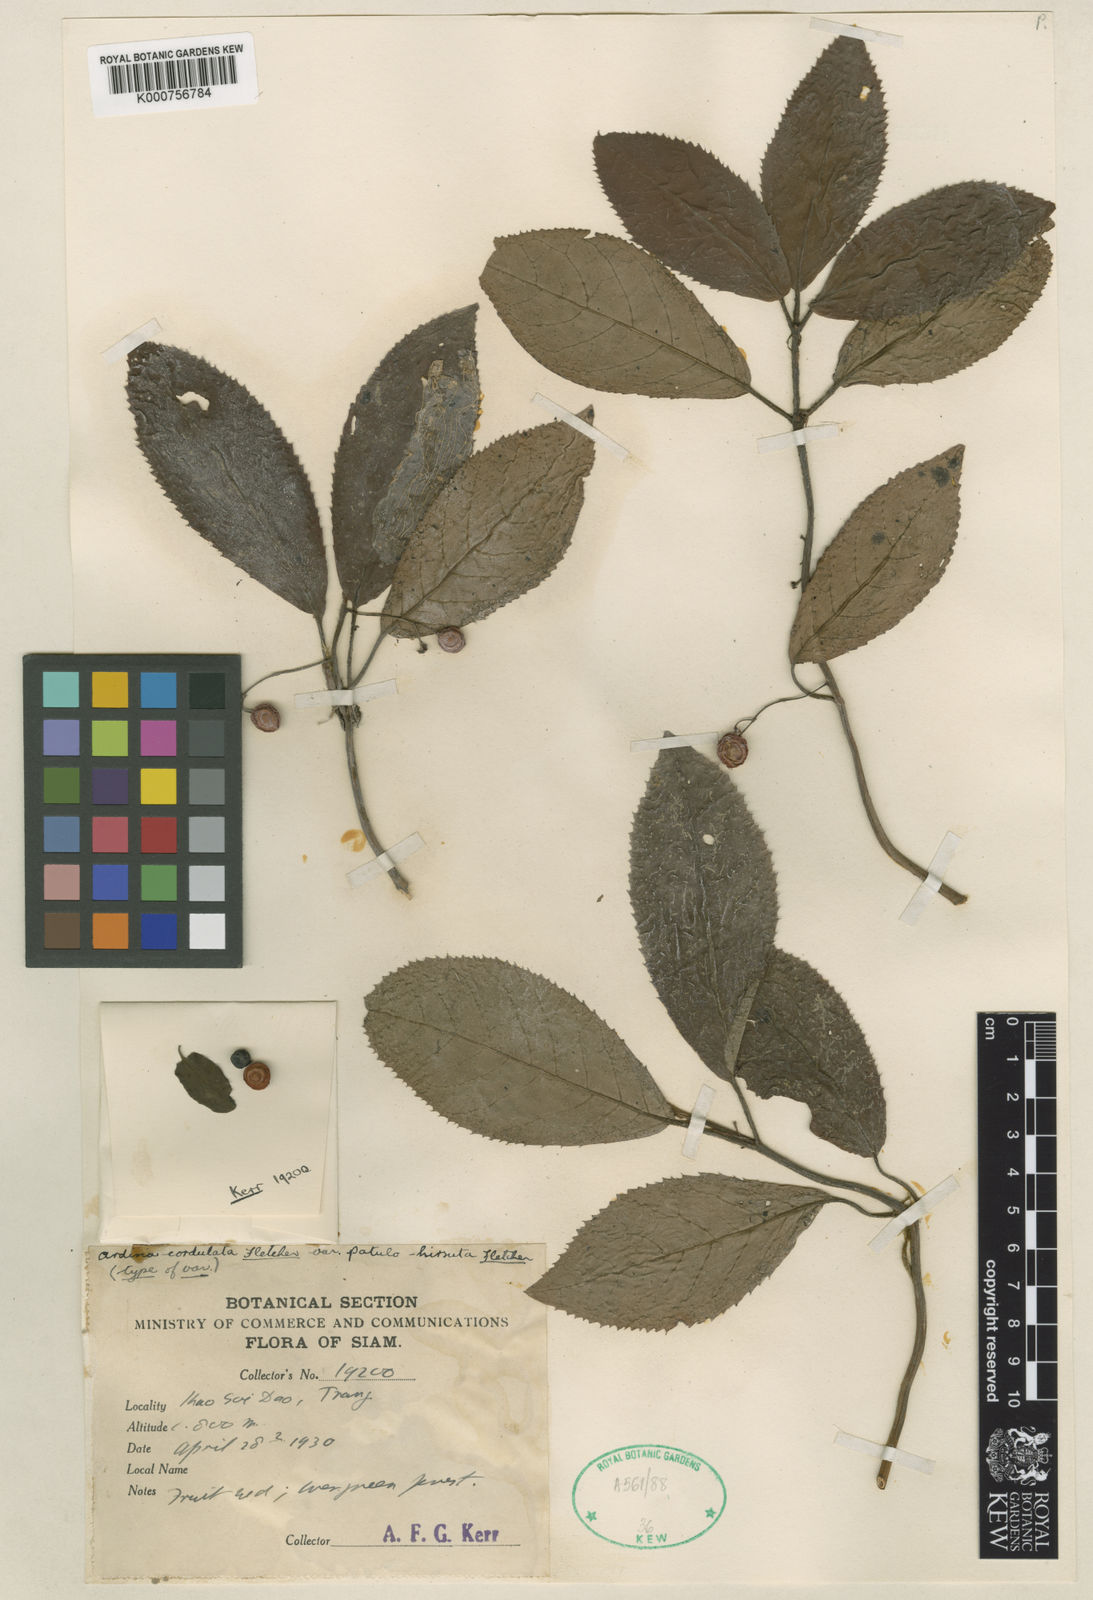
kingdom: Plantae
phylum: Tracheophyta
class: Magnoliopsida
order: Ericales
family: Primulaceae
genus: Ardisia
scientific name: Ardisia demissa
